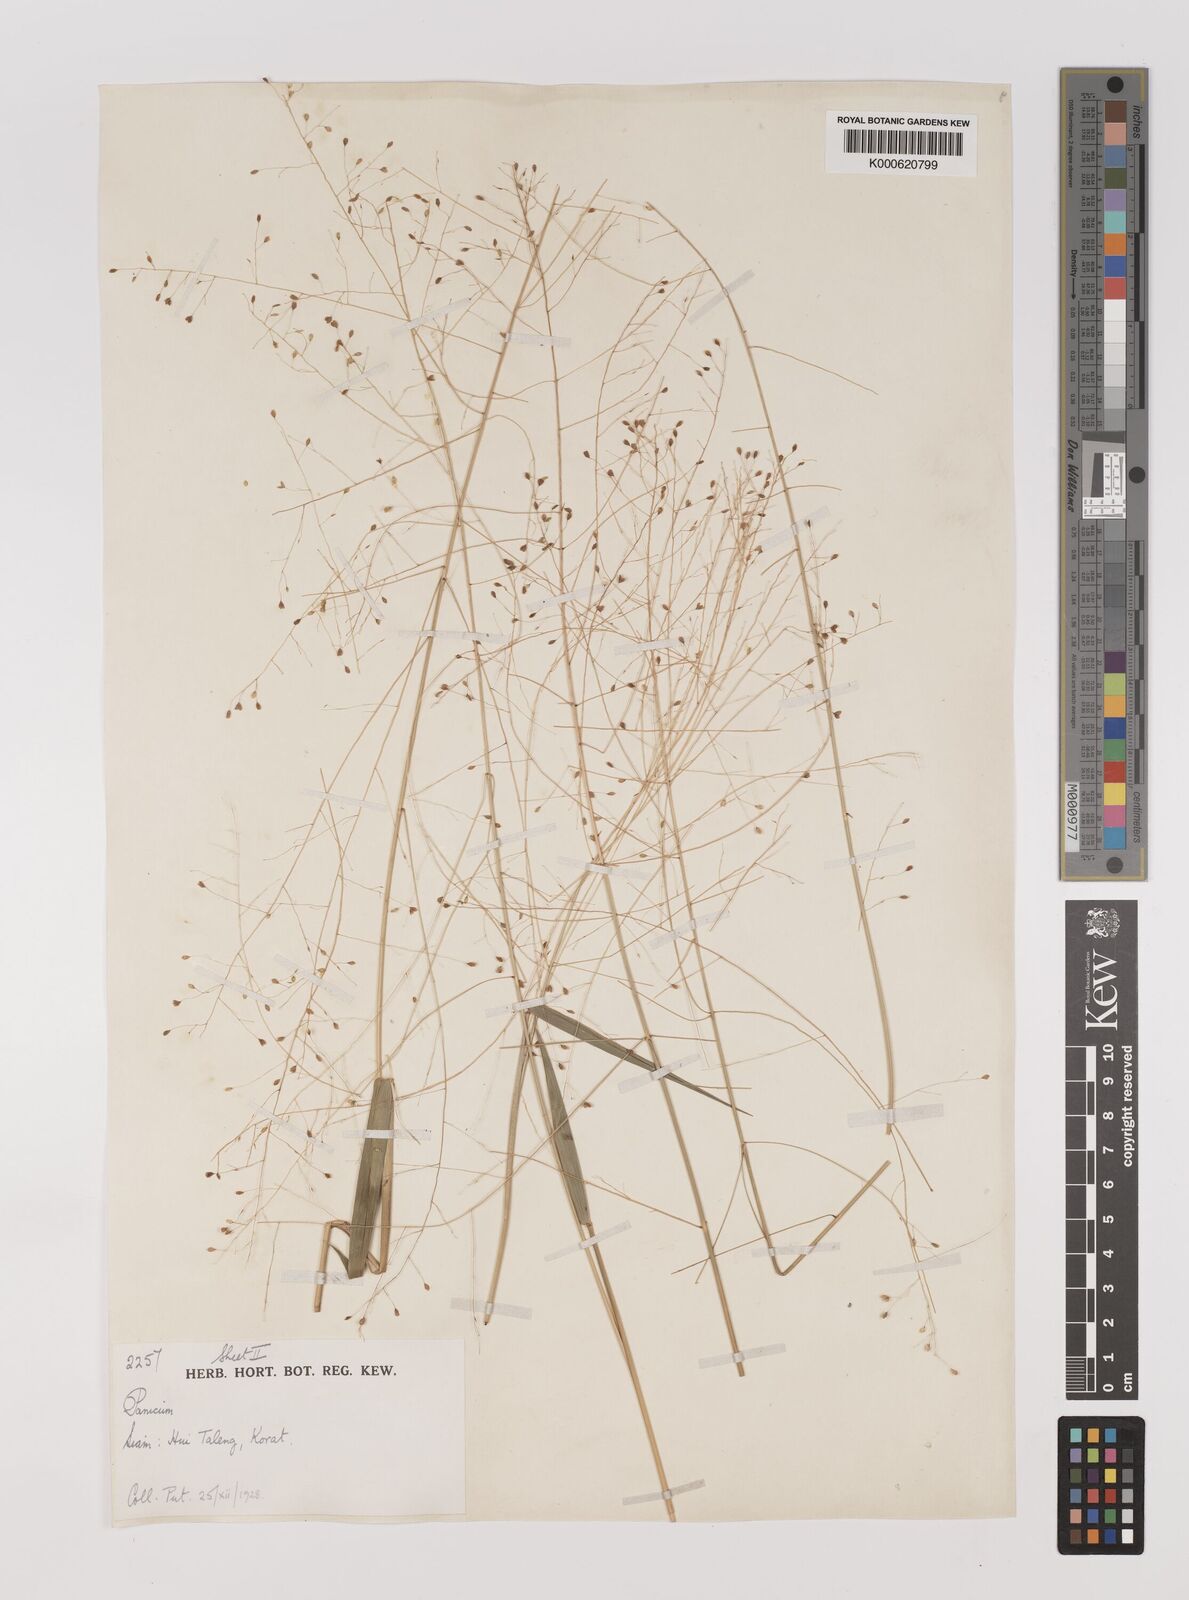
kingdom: Plantae
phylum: Tracheophyta
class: Liliopsida
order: Poales
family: Poaceae
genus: Panicum
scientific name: Panicum notatum
